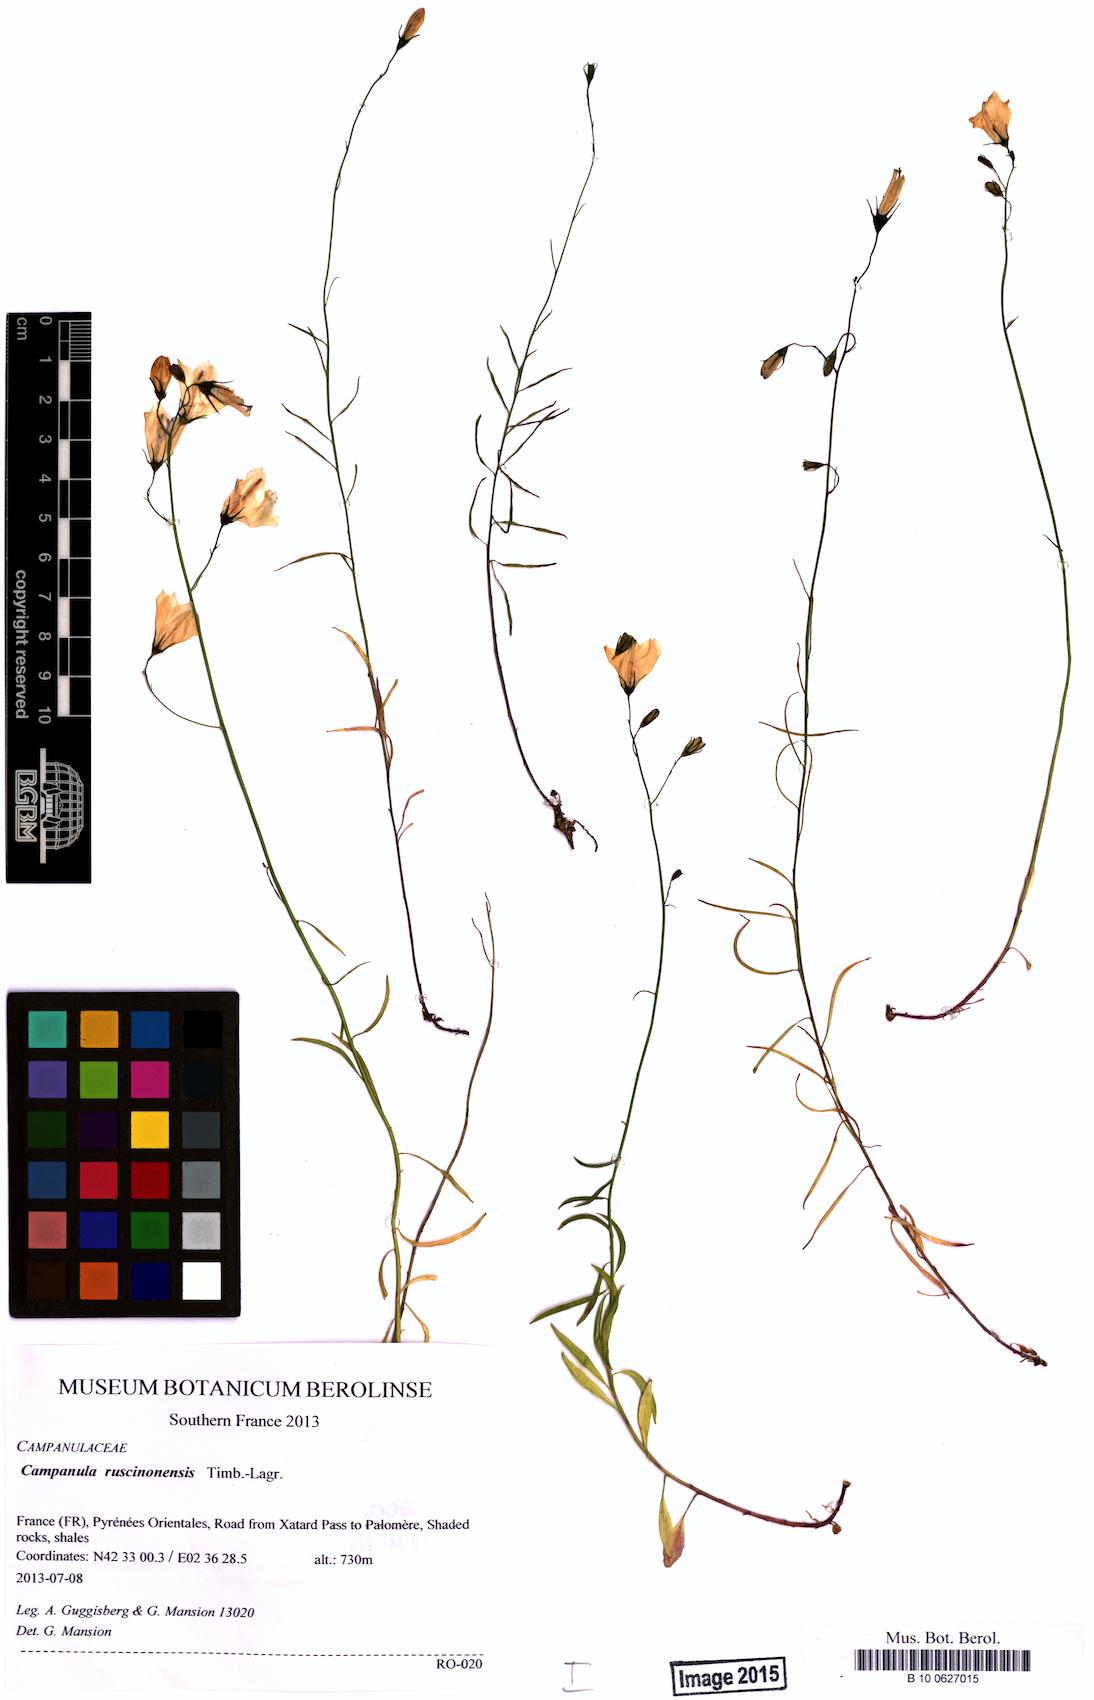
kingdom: Plantae
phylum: Tracheophyta
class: Magnoliopsida
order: Asterales
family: Campanulaceae
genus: Campanula
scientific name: Campanula ruscinonensis
